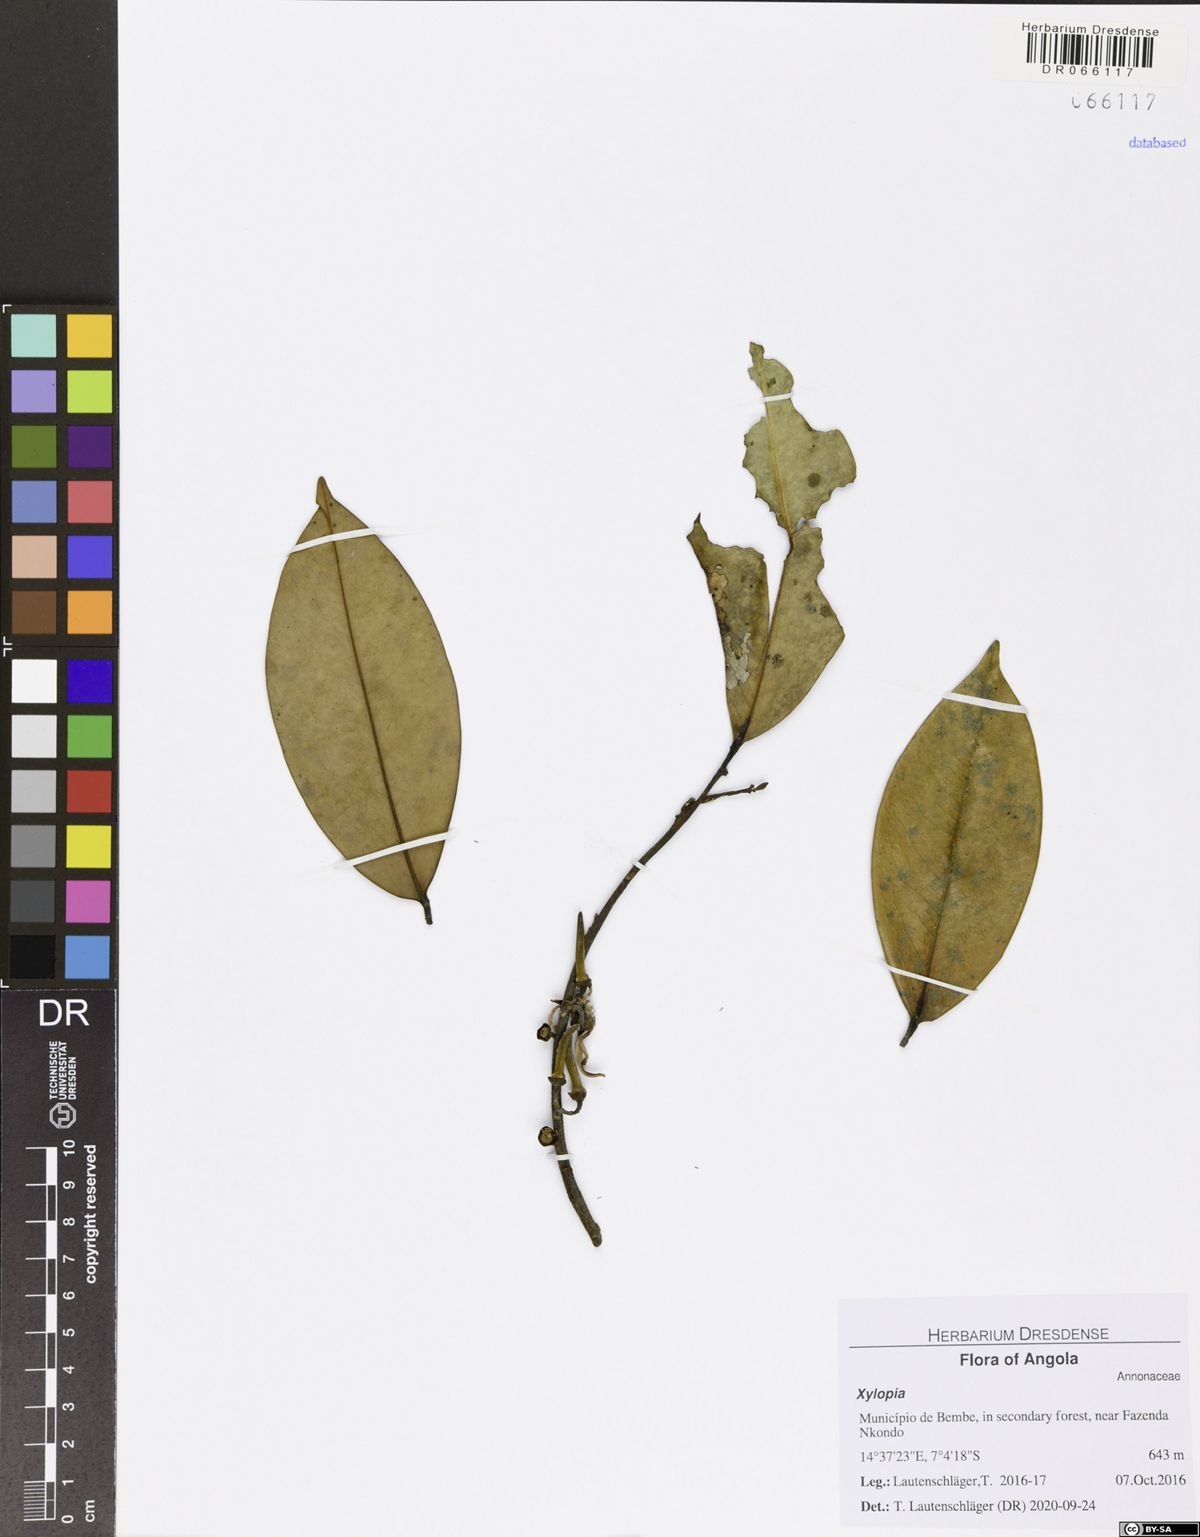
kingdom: Plantae
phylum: Tracheophyta
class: Magnoliopsida
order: Magnoliales
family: Annonaceae
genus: Xylopia
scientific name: Xylopia
